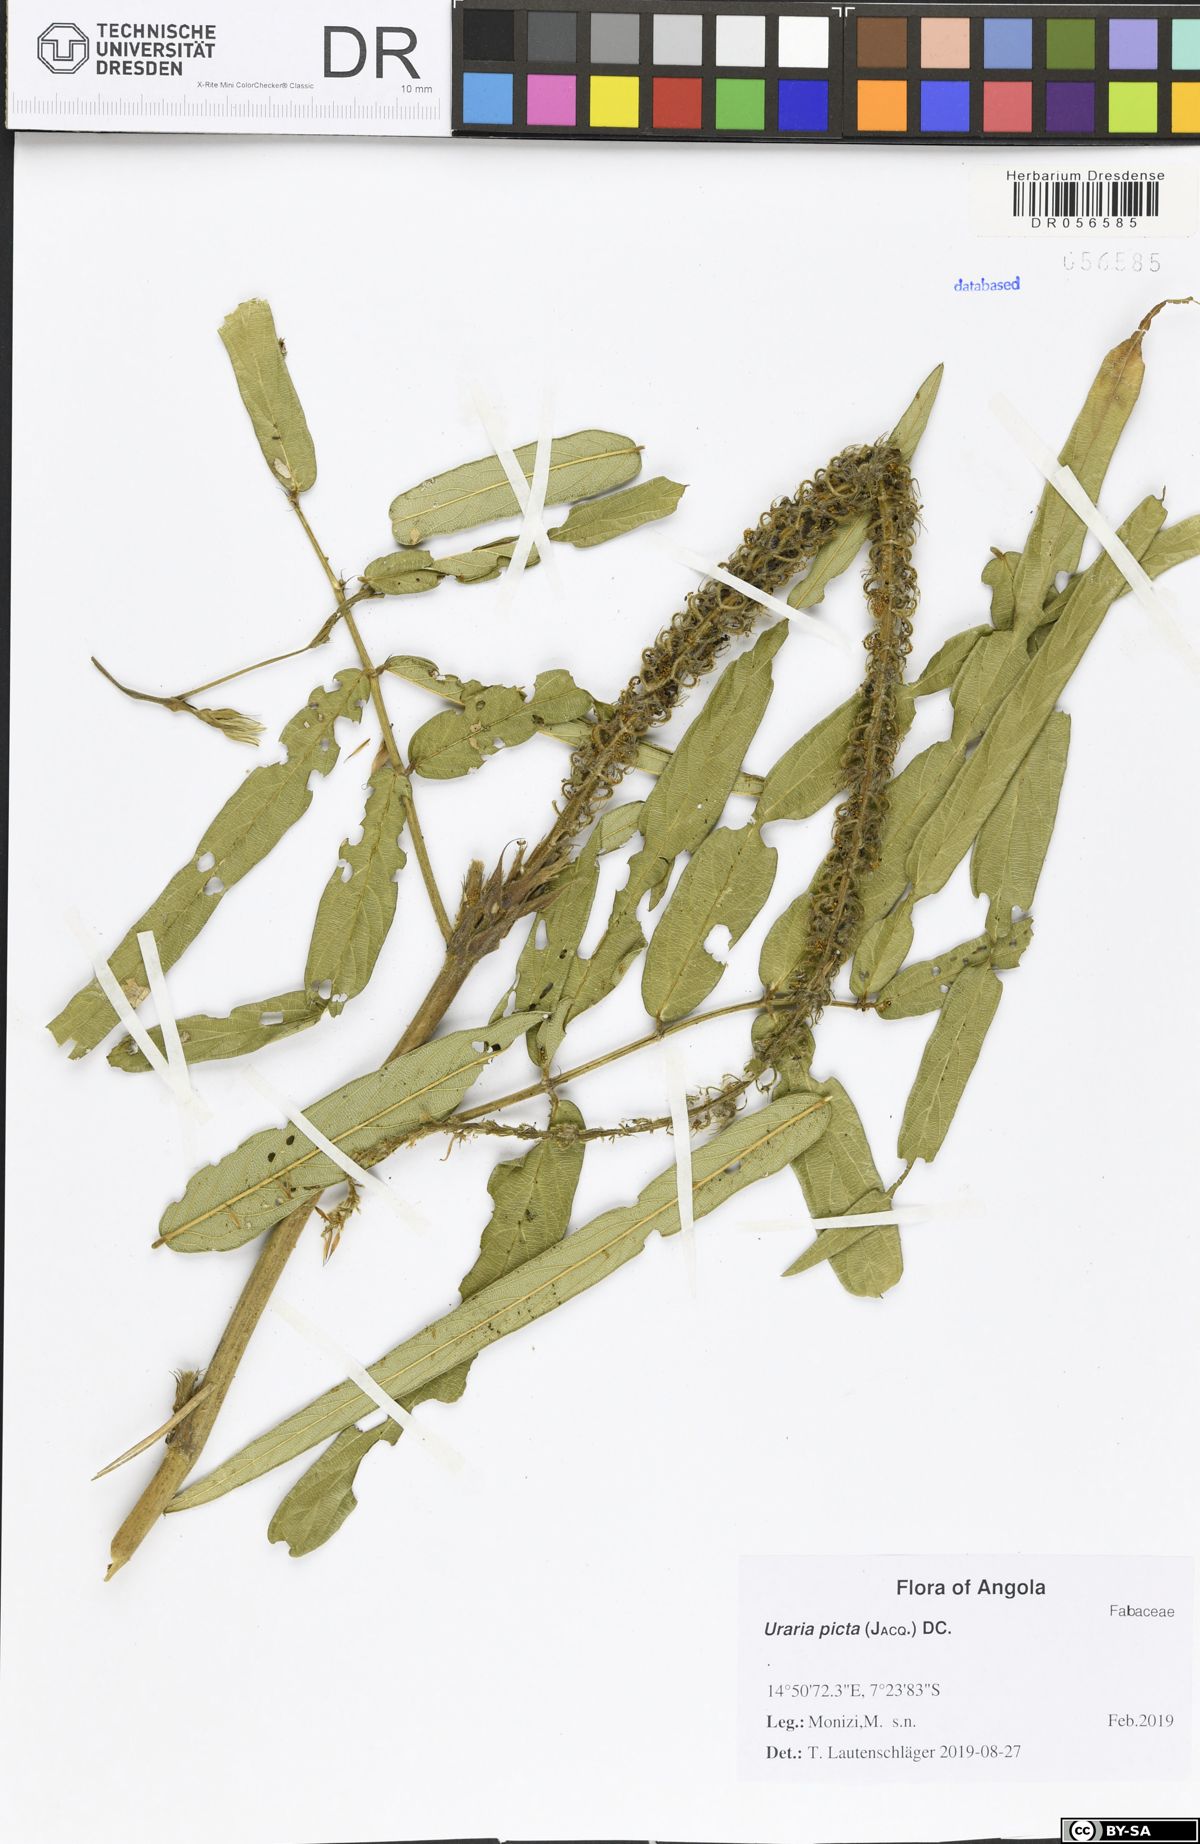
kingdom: Plantae
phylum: Tracheophyta
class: Magnoliopsida
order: Fabales
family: Fabaceae
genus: Uraria
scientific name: Uraria picta
